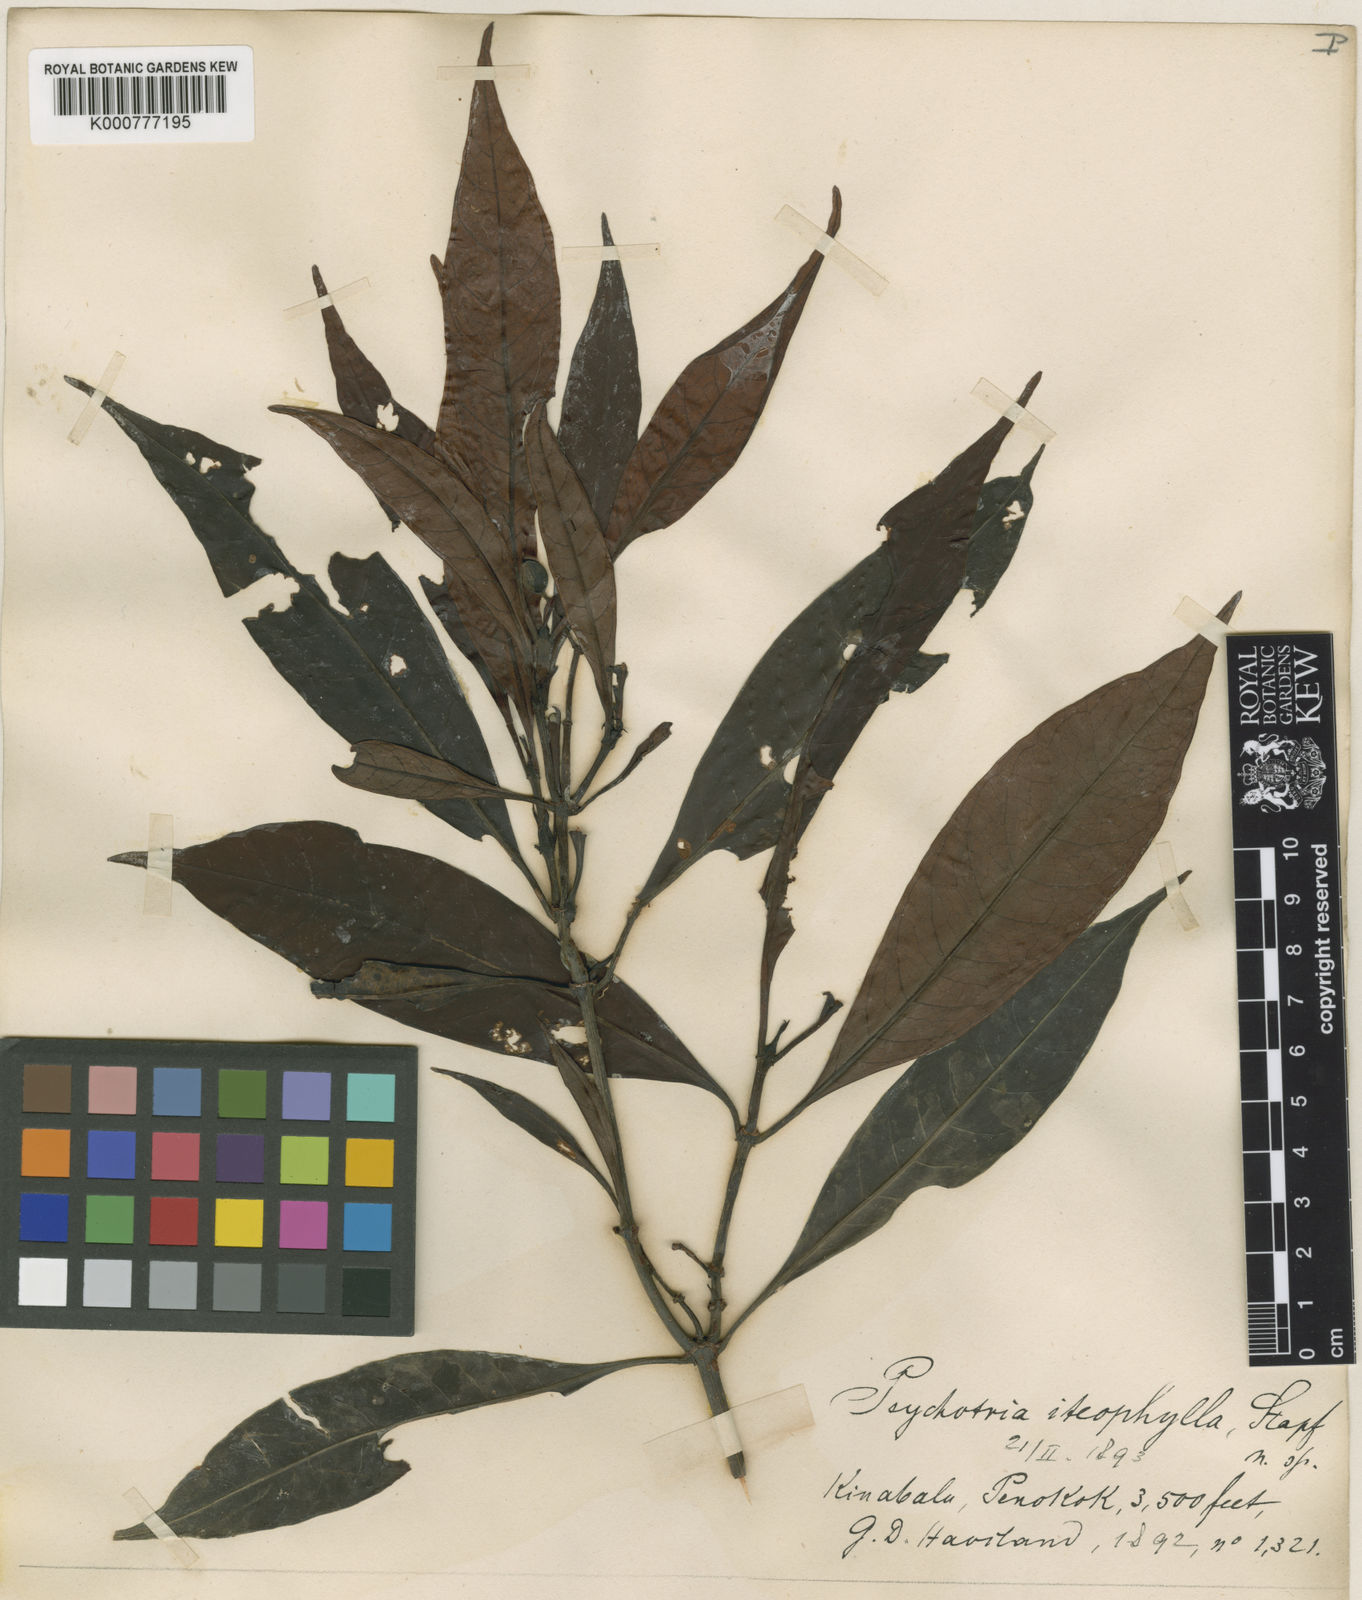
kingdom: Plantae
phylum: Tracheophyta
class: Magnoliopsida
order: Gentianales
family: Rubiaceae
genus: Psychotria
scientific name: Psychotria iteophylla
